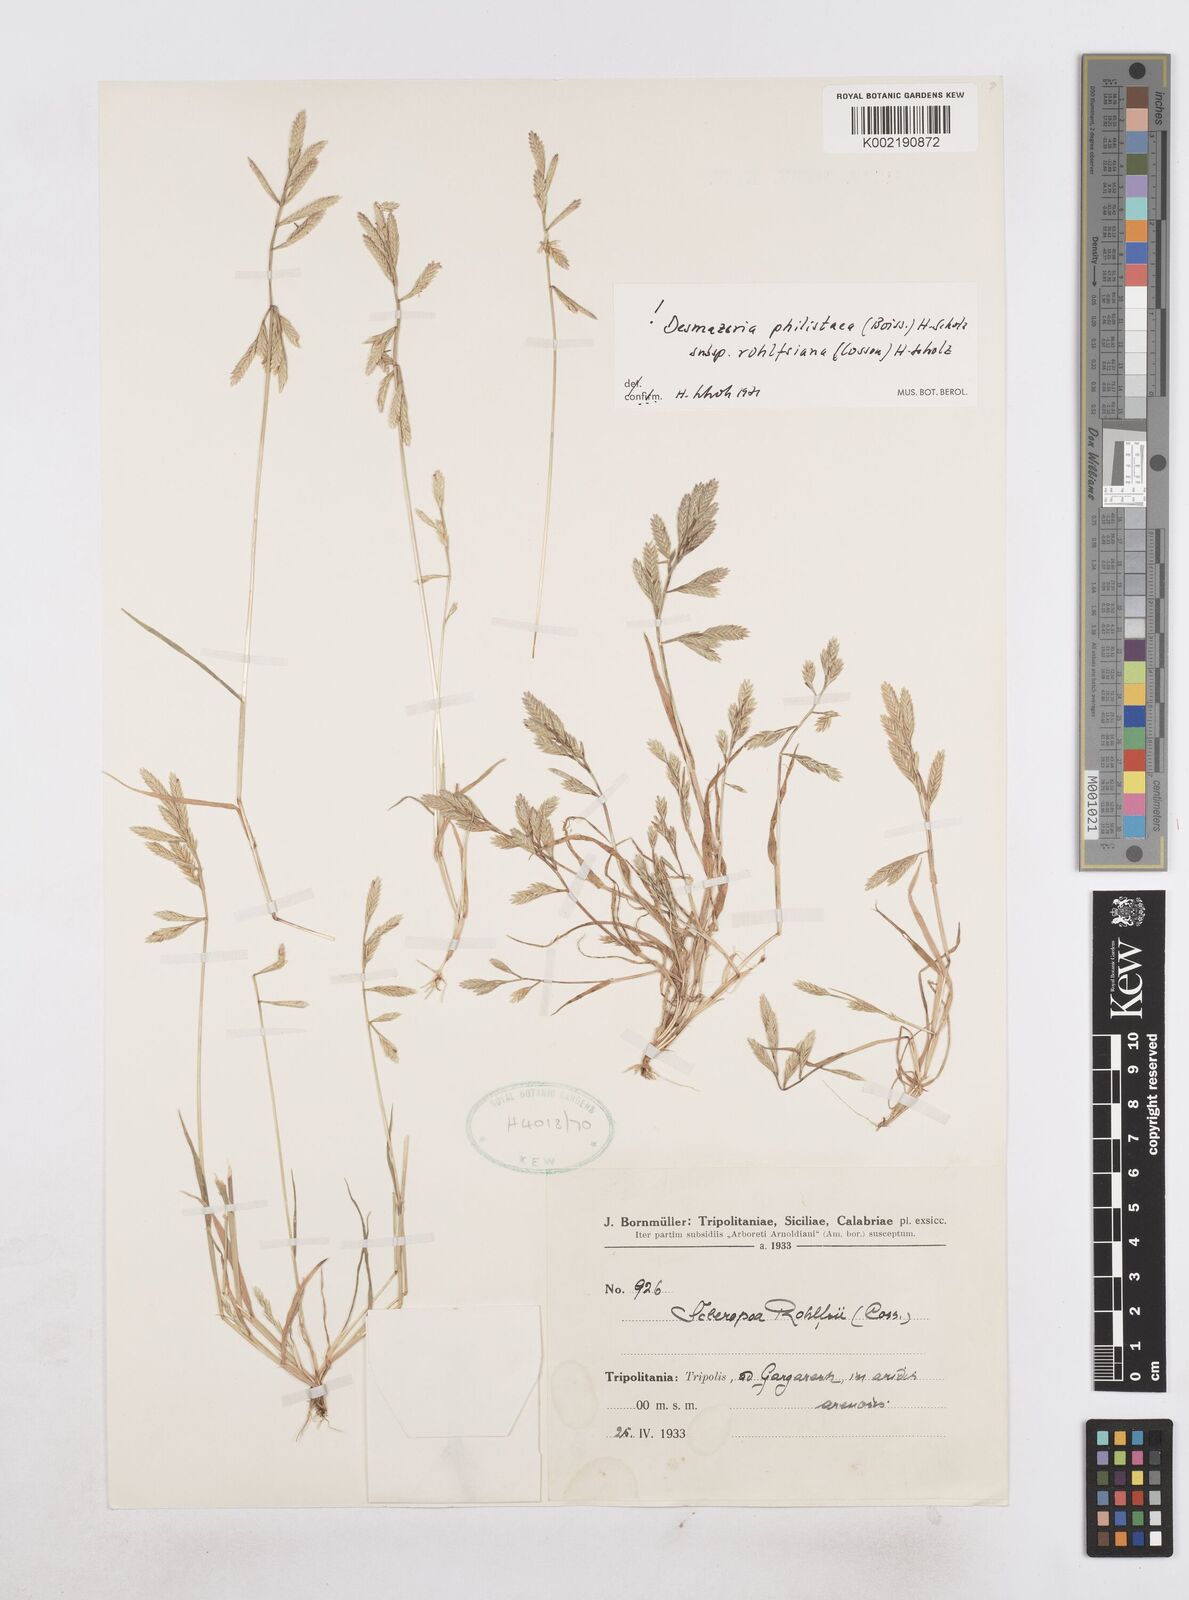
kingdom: Plantae
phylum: Tracheophyta
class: Liliopsida
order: Poales
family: Poaceae
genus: Desmazeria
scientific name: Desmazeria philistaea
